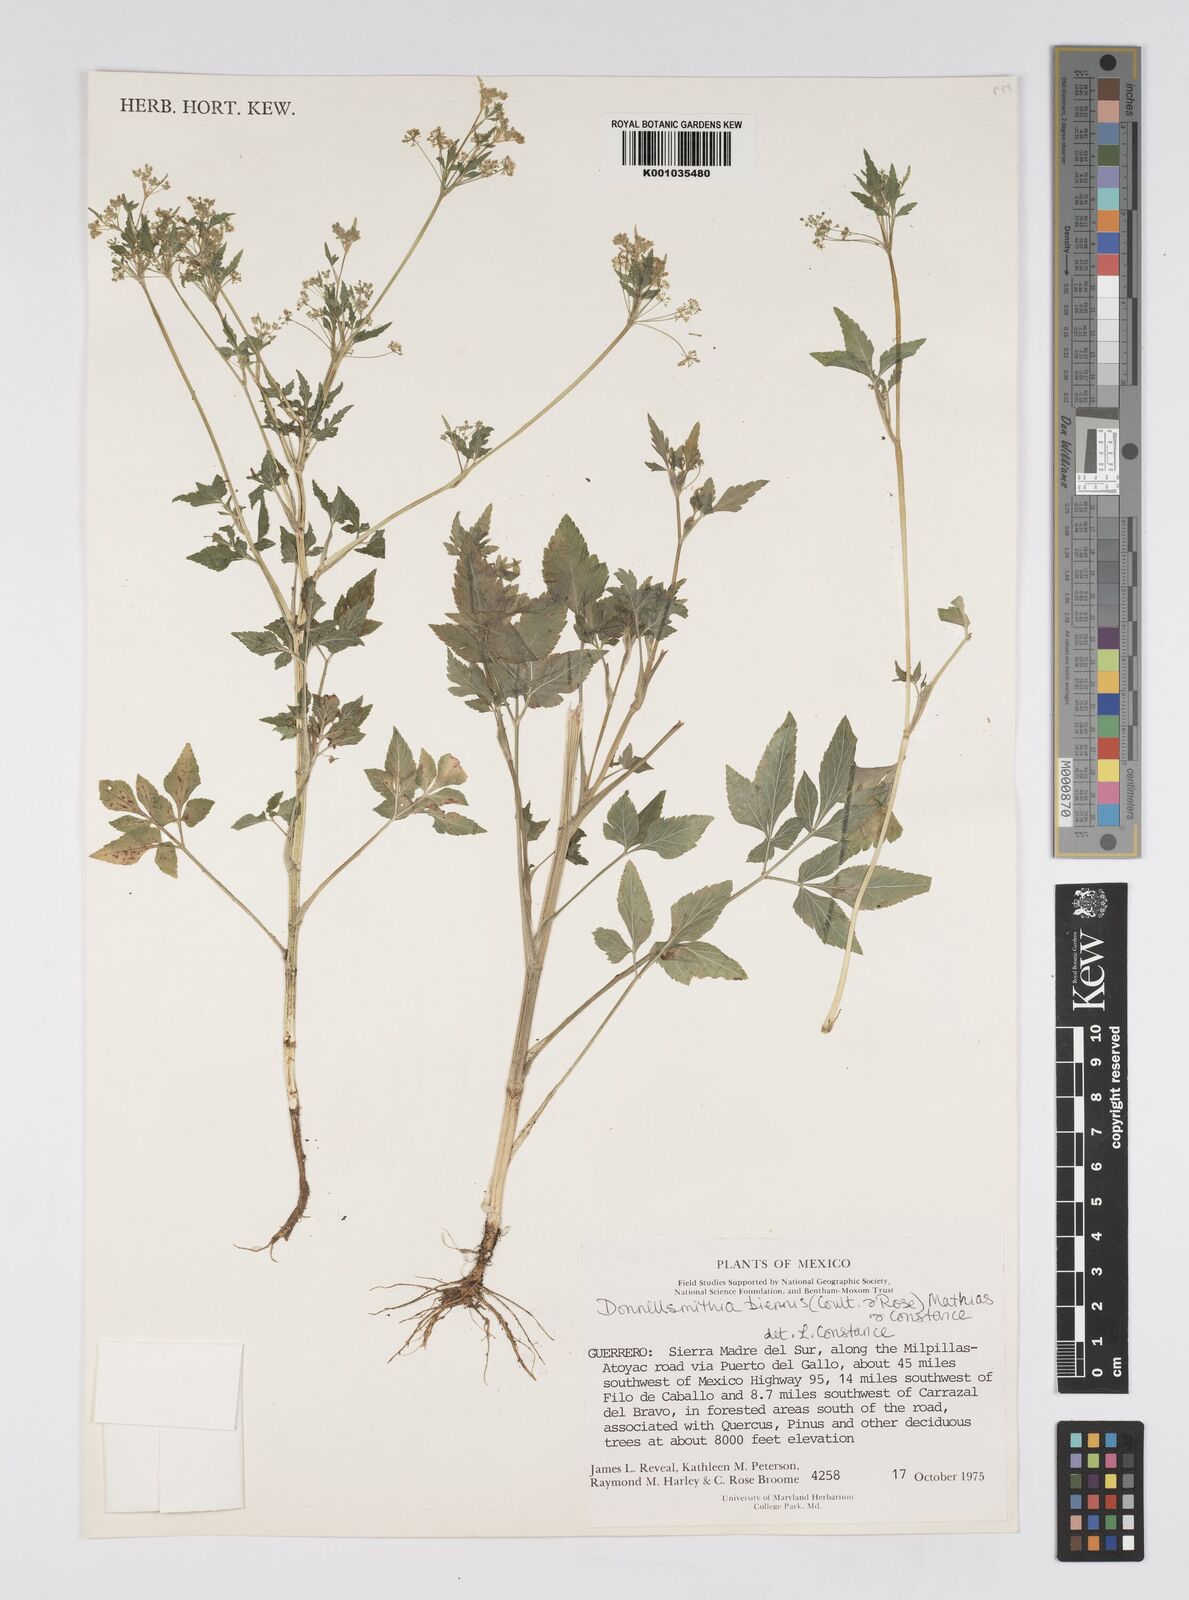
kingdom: Plantae
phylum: Tracheophyta
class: Magnoliopsida
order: Apiales
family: Apiaceae
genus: Donnellsmithia
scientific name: Donnellsmithia biennis
